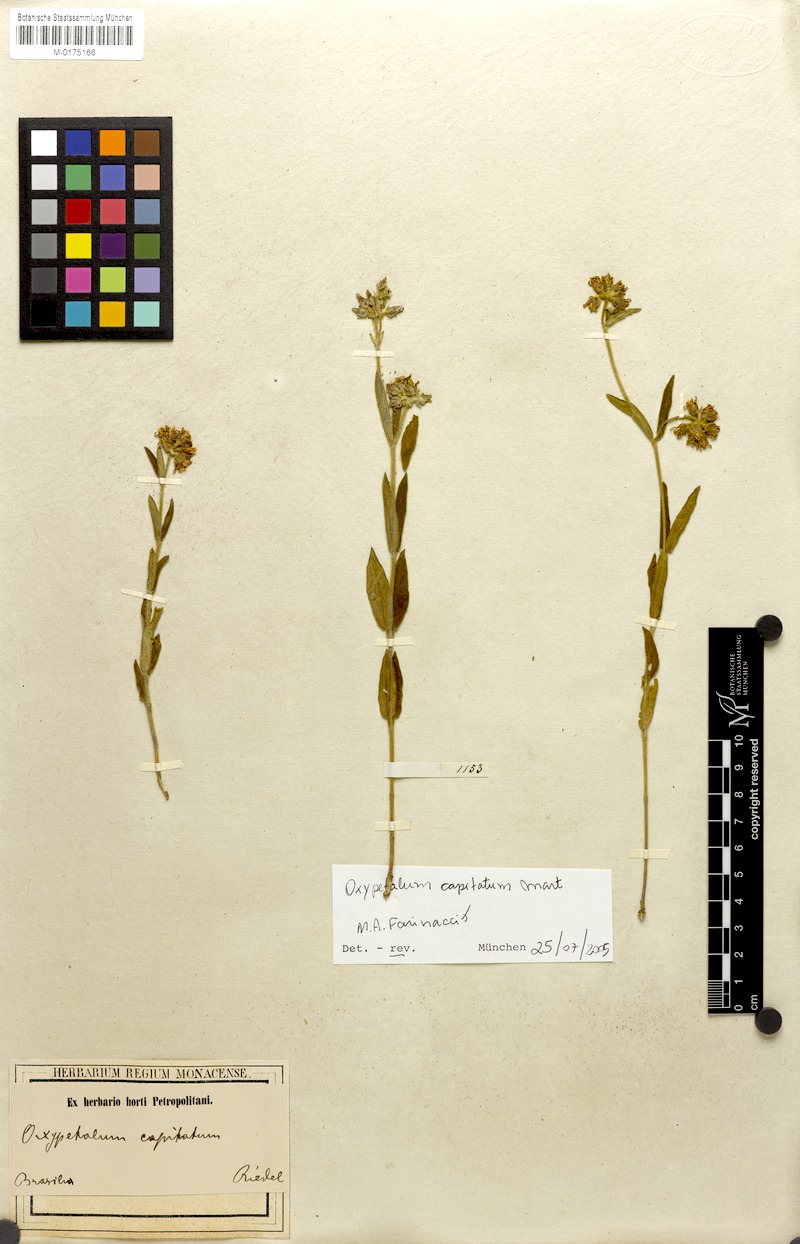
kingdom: Plantae
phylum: Tracheophyta
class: Magnoliopsida
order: Gentianales
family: Apocynaceae
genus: Oxypetalum
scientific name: Oxypetalum capitatum
